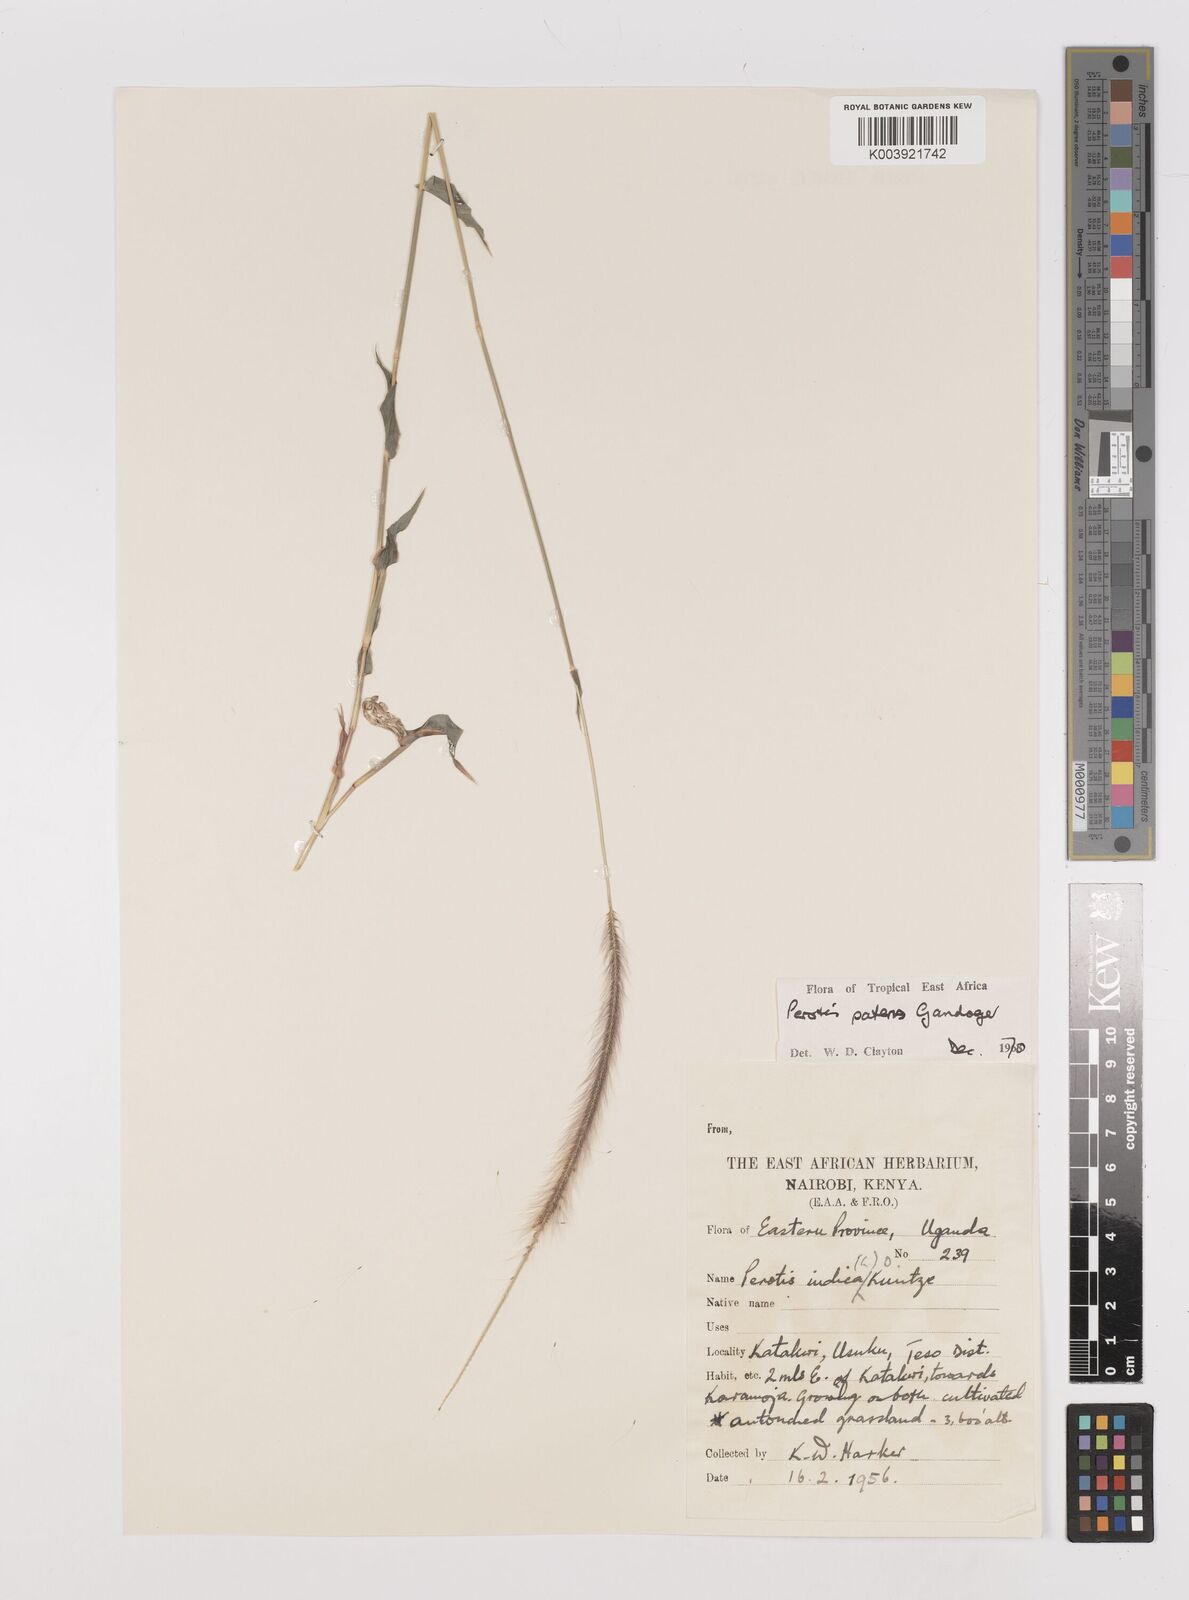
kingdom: Plantae
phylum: Tracheophyta
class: Liliopsida
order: Poales
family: Poaceae
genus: Perotis
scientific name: Perotis patens
